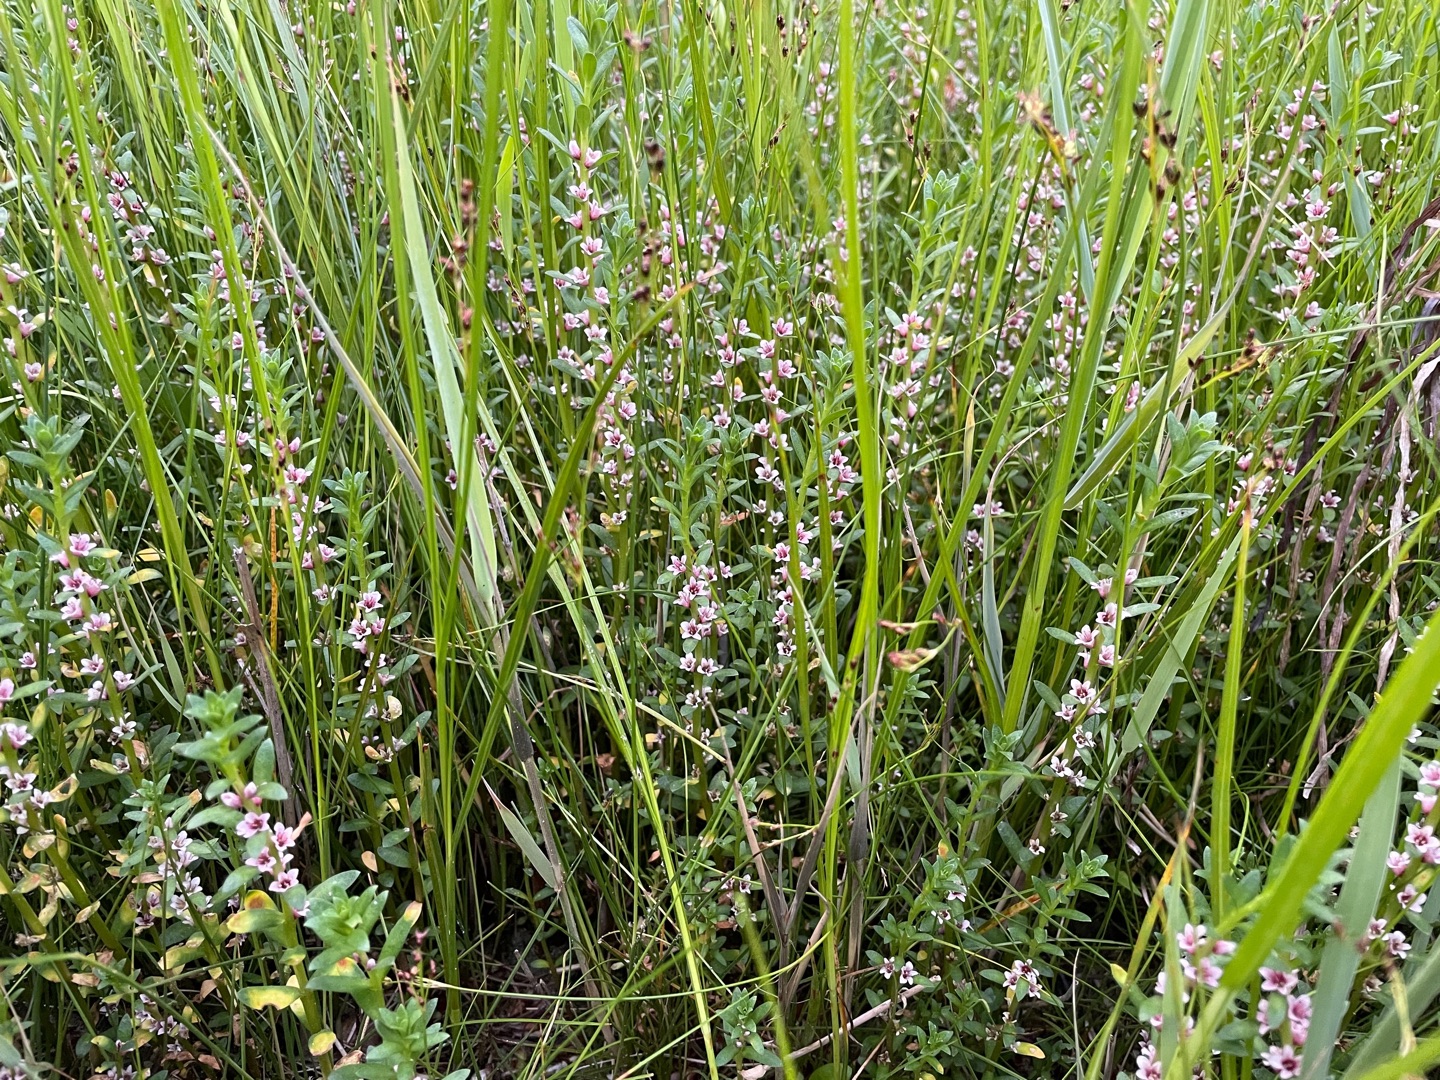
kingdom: Plantae
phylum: Tracheophyta
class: Magnoliopsida
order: Ericales
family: Primulaceae
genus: Lysimachia
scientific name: Lysimachia maritima
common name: Sandkryb
